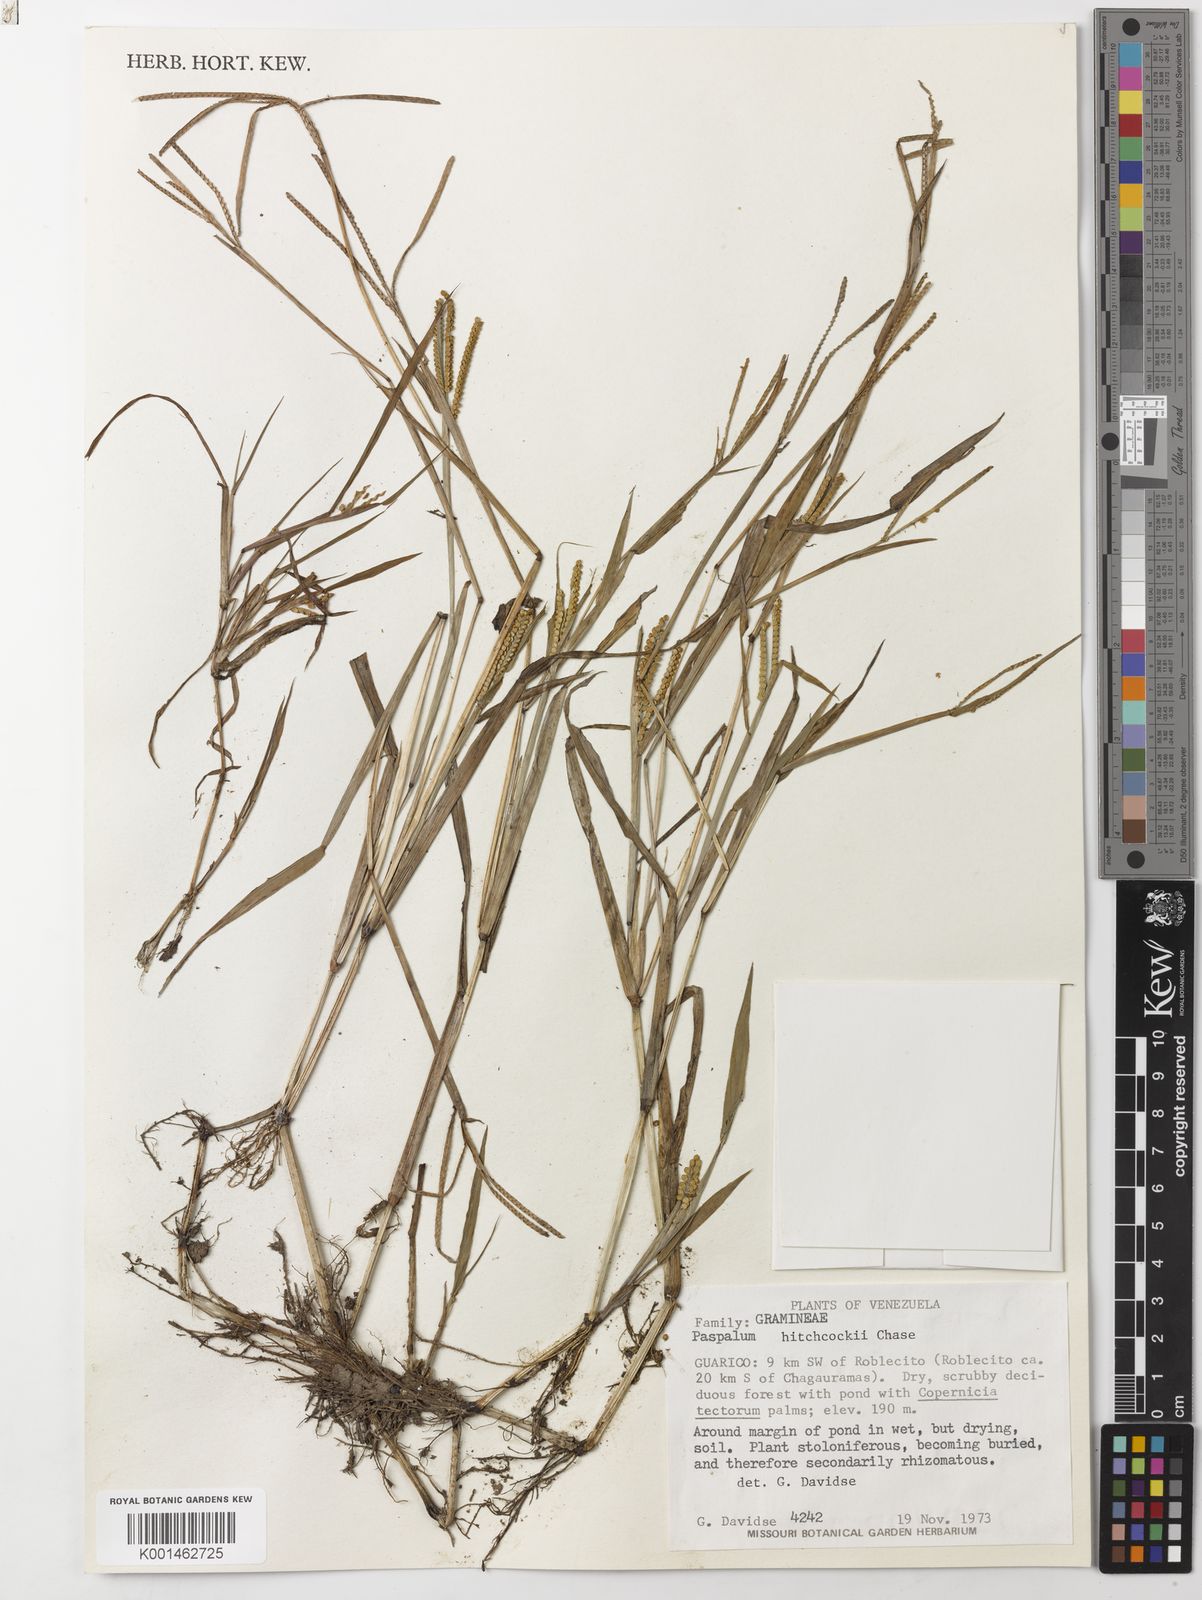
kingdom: Plantae
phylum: Tracheophyta
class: Liliopsida
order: Poales
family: Poaceae
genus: Paspalum
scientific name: Paspalum hitchcockii
